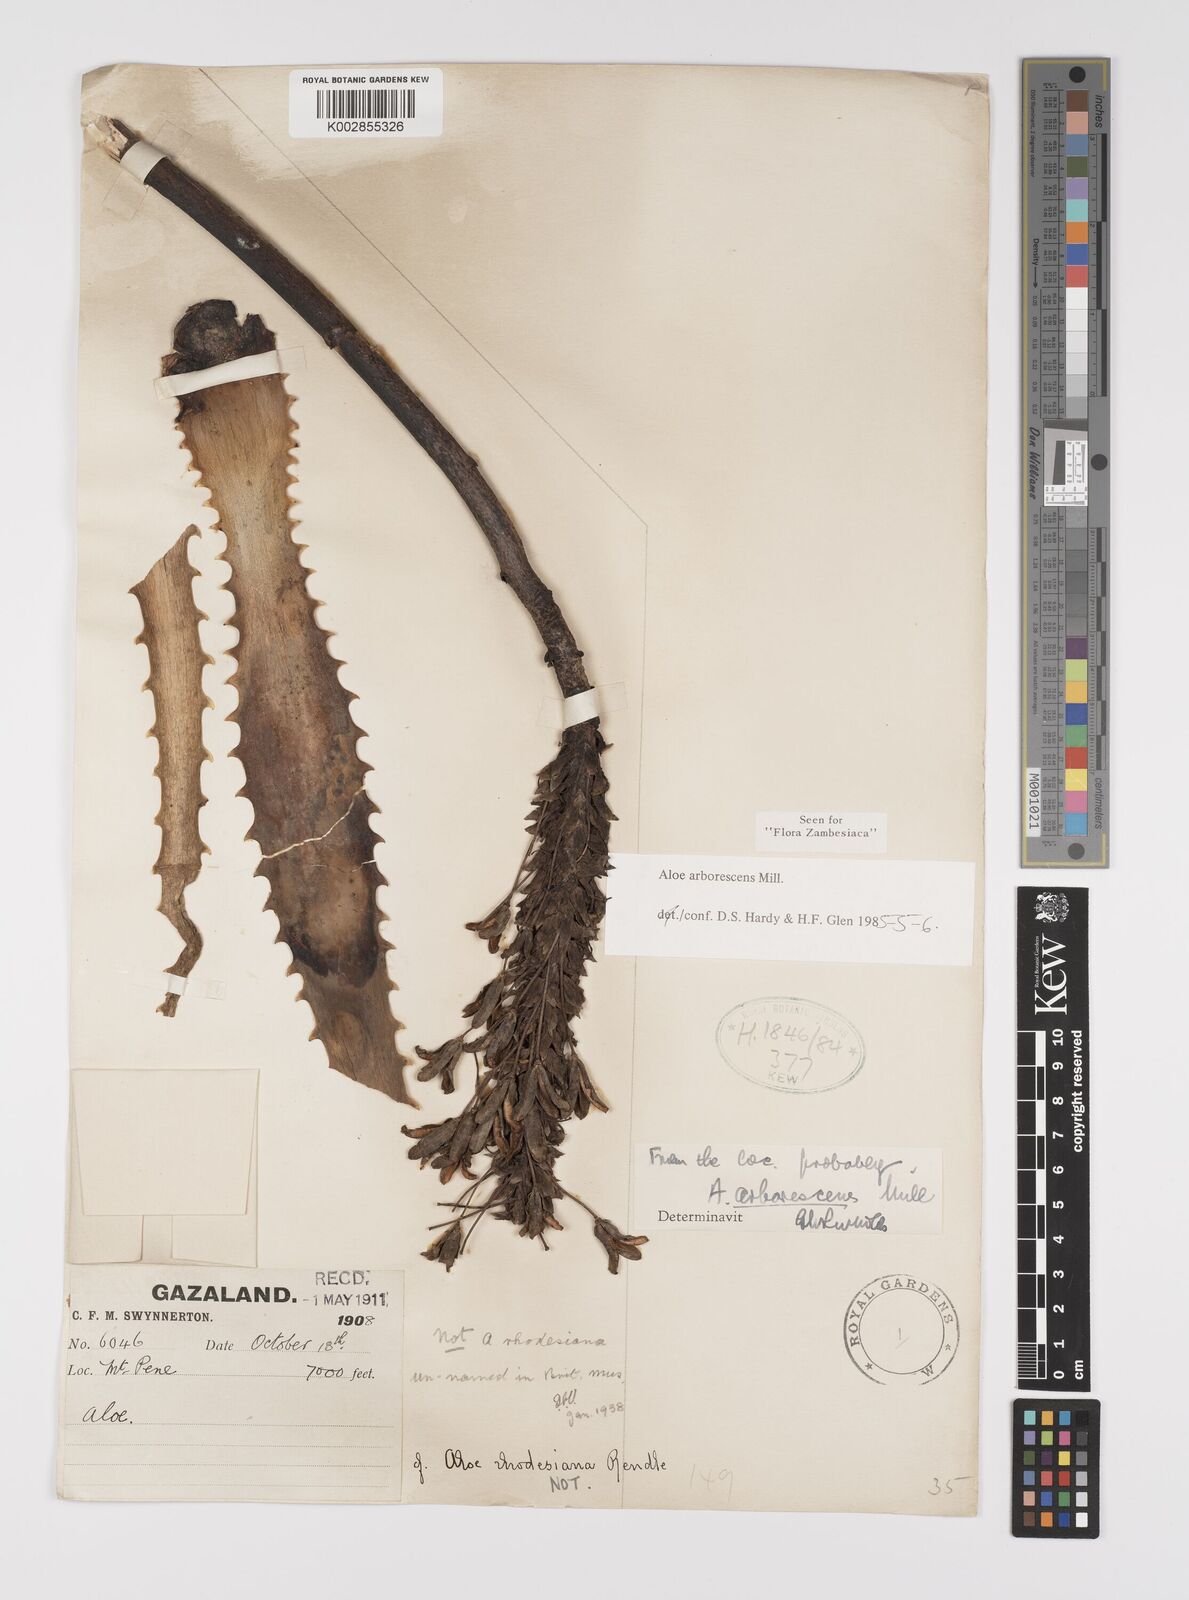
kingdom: Plantae
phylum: Tracheophyta
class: Liliopsida
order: Asparagales
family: Asphodelaceae
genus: Aloe
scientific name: Aloe arborescens
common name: Candelabra aloe
